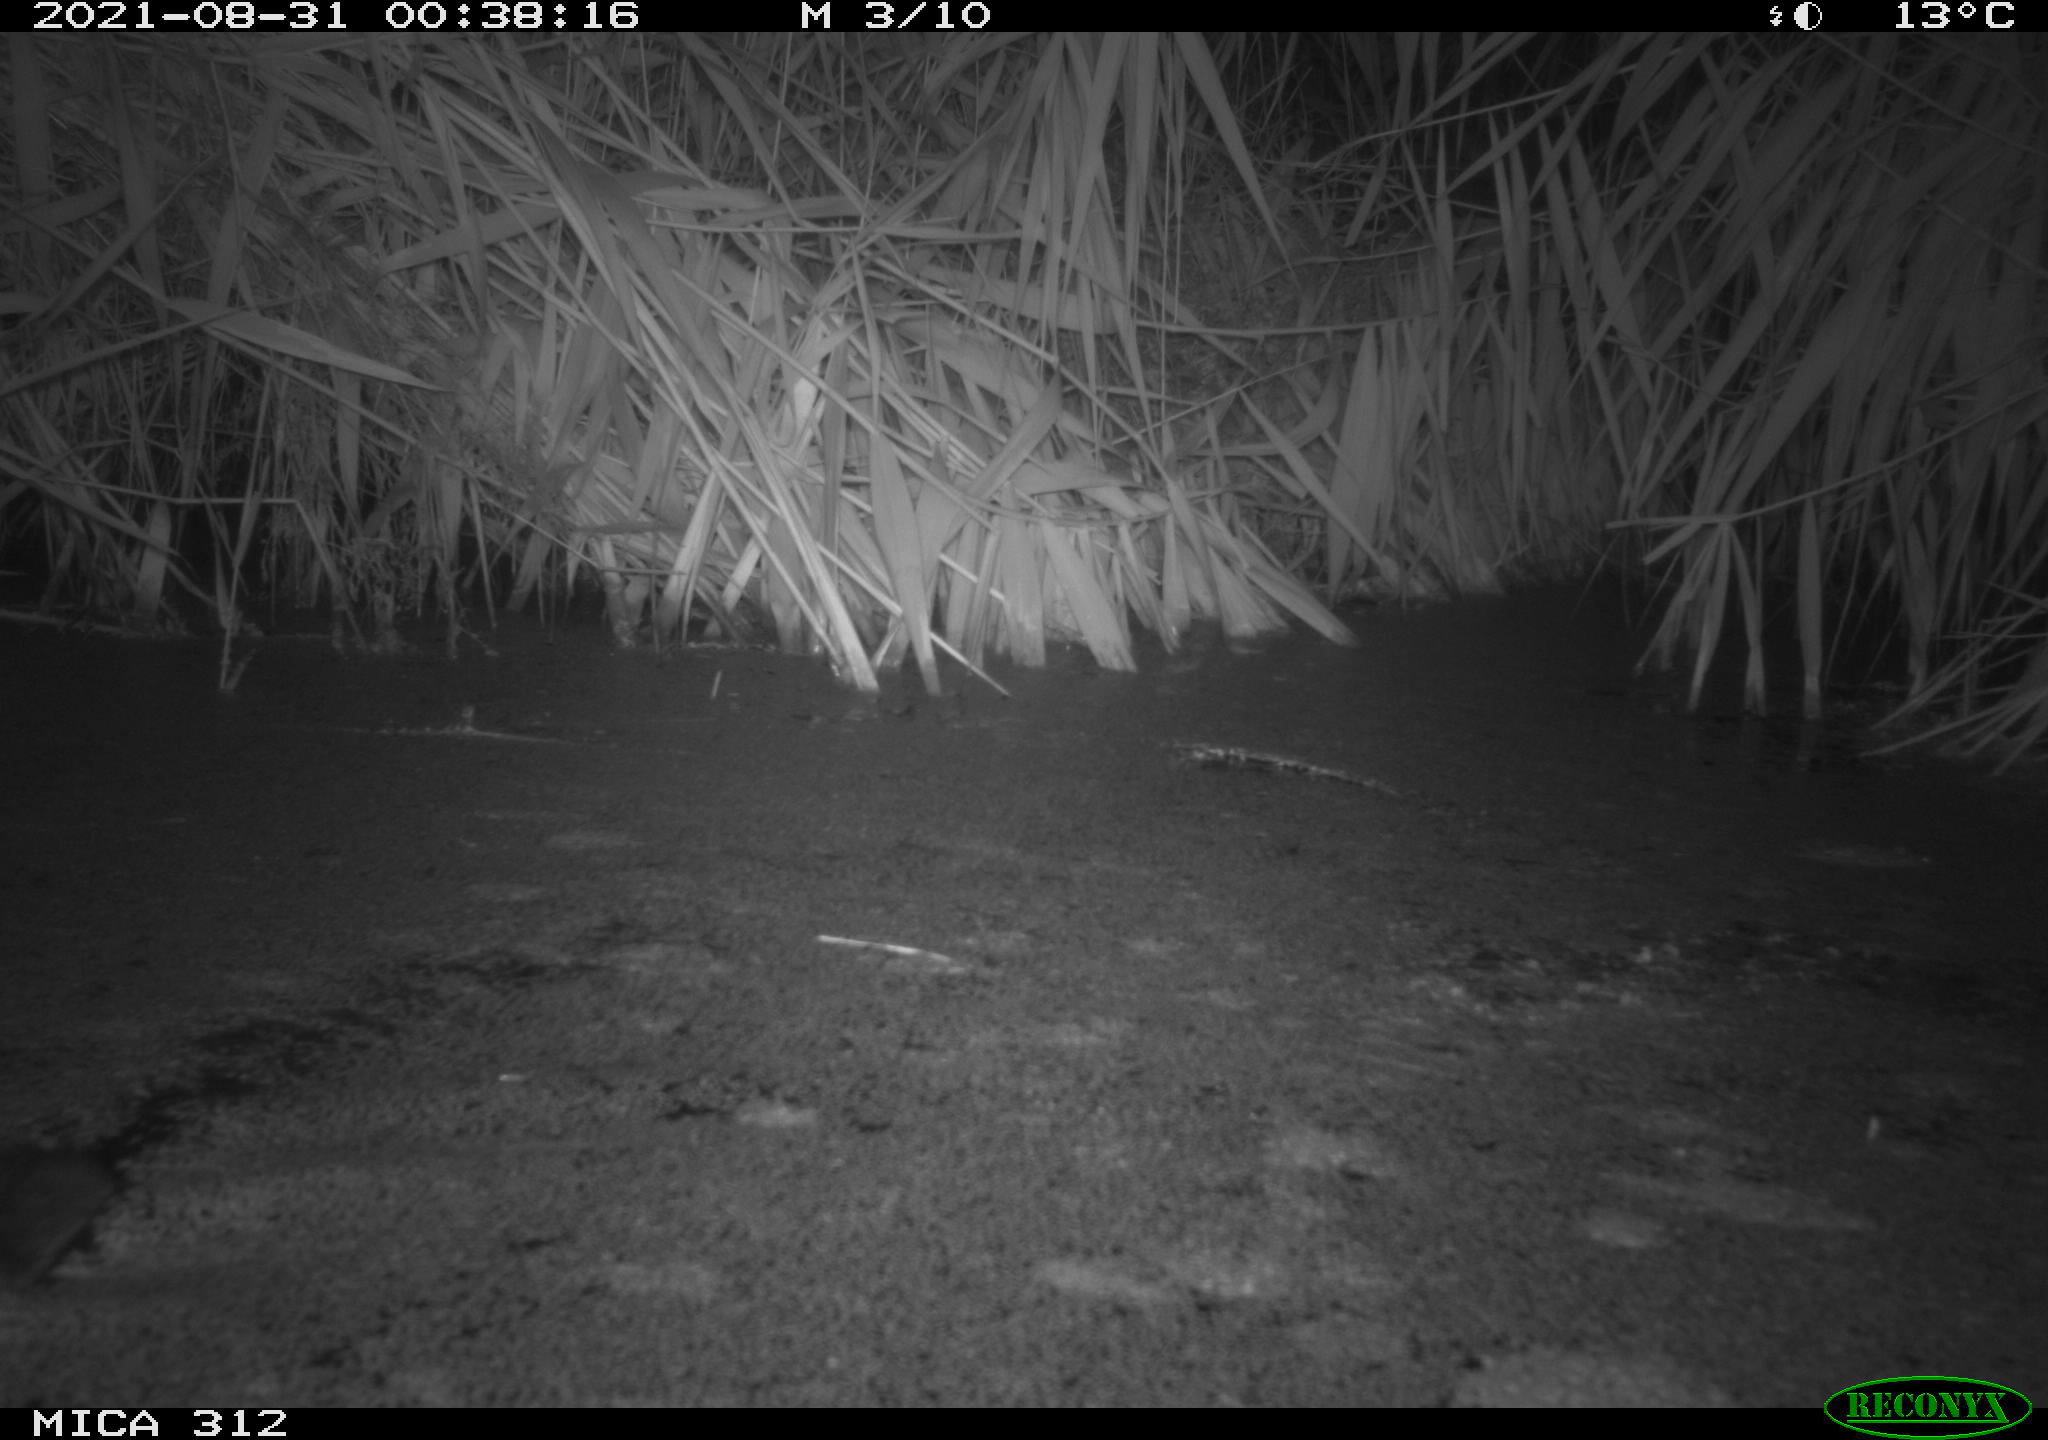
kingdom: Animalia
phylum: Chordata
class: Mammalia
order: Rodentia
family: Muridae
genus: Rattus
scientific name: Rattus norvegicus
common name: Brown rat
